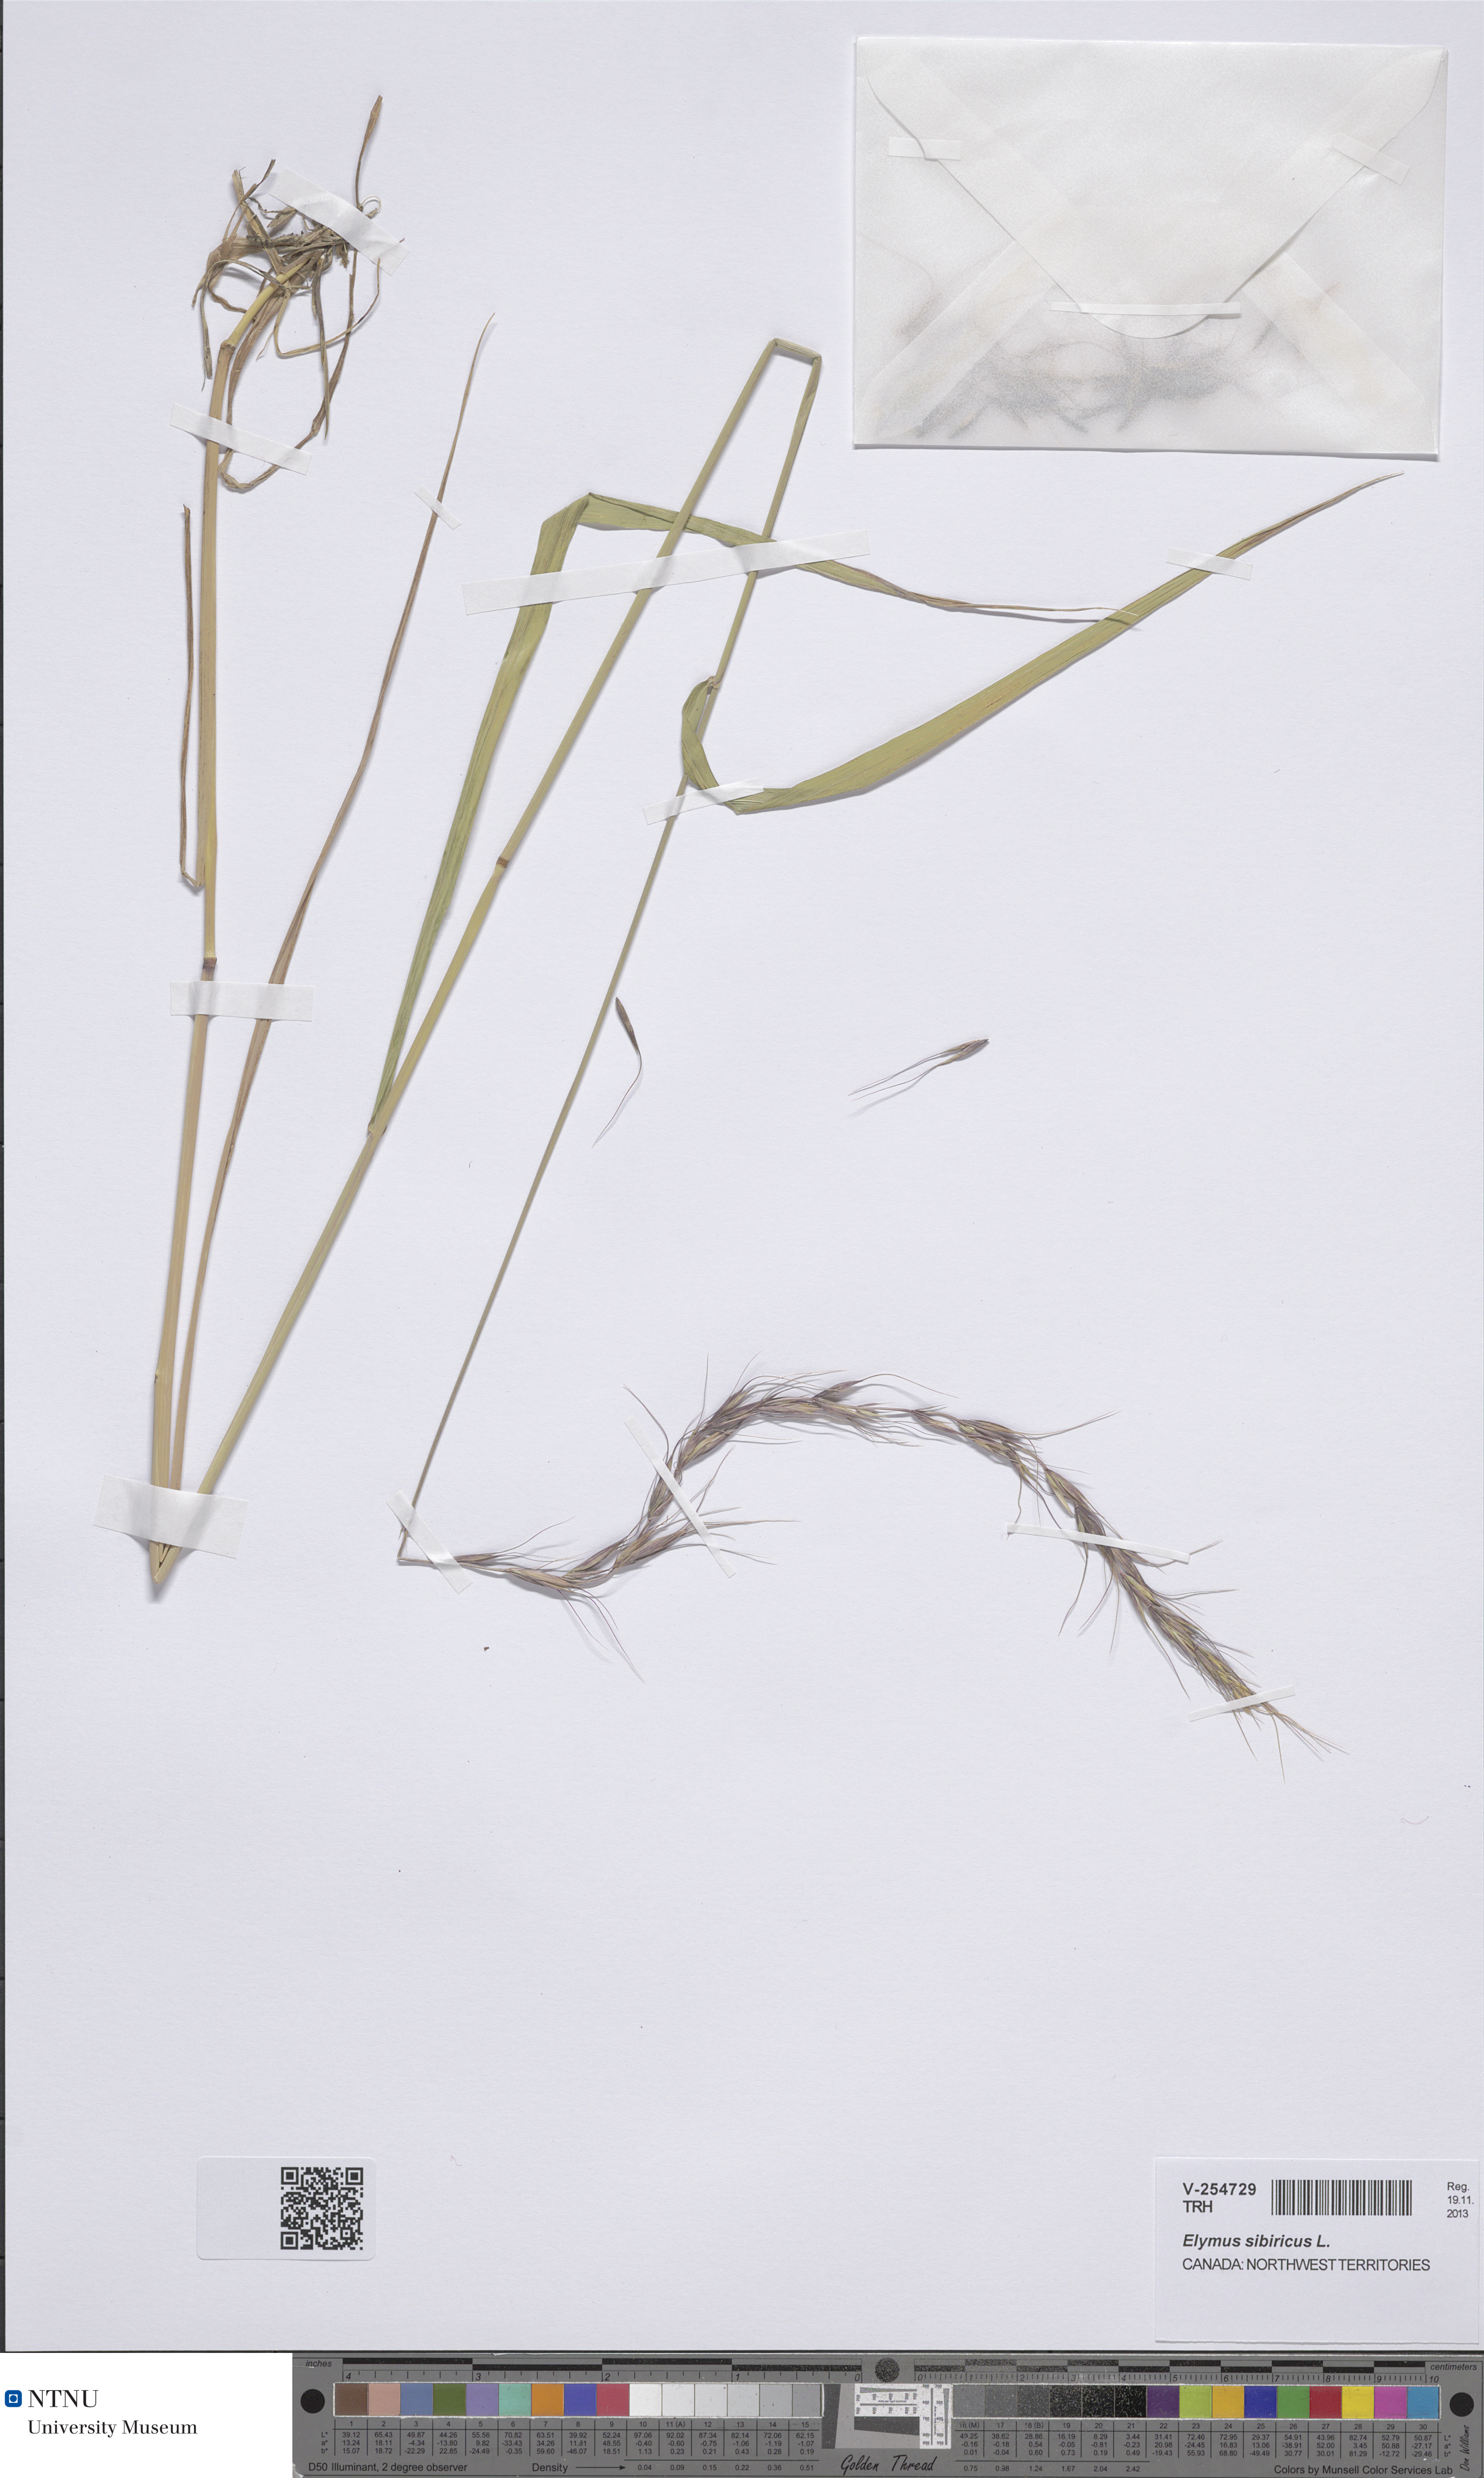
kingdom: Plantae
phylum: Tracheophyta
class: Liliopsida
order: Poales
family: Poaceae
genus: Elymus
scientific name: Elymus sibiricus
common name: Siberian wildrye
